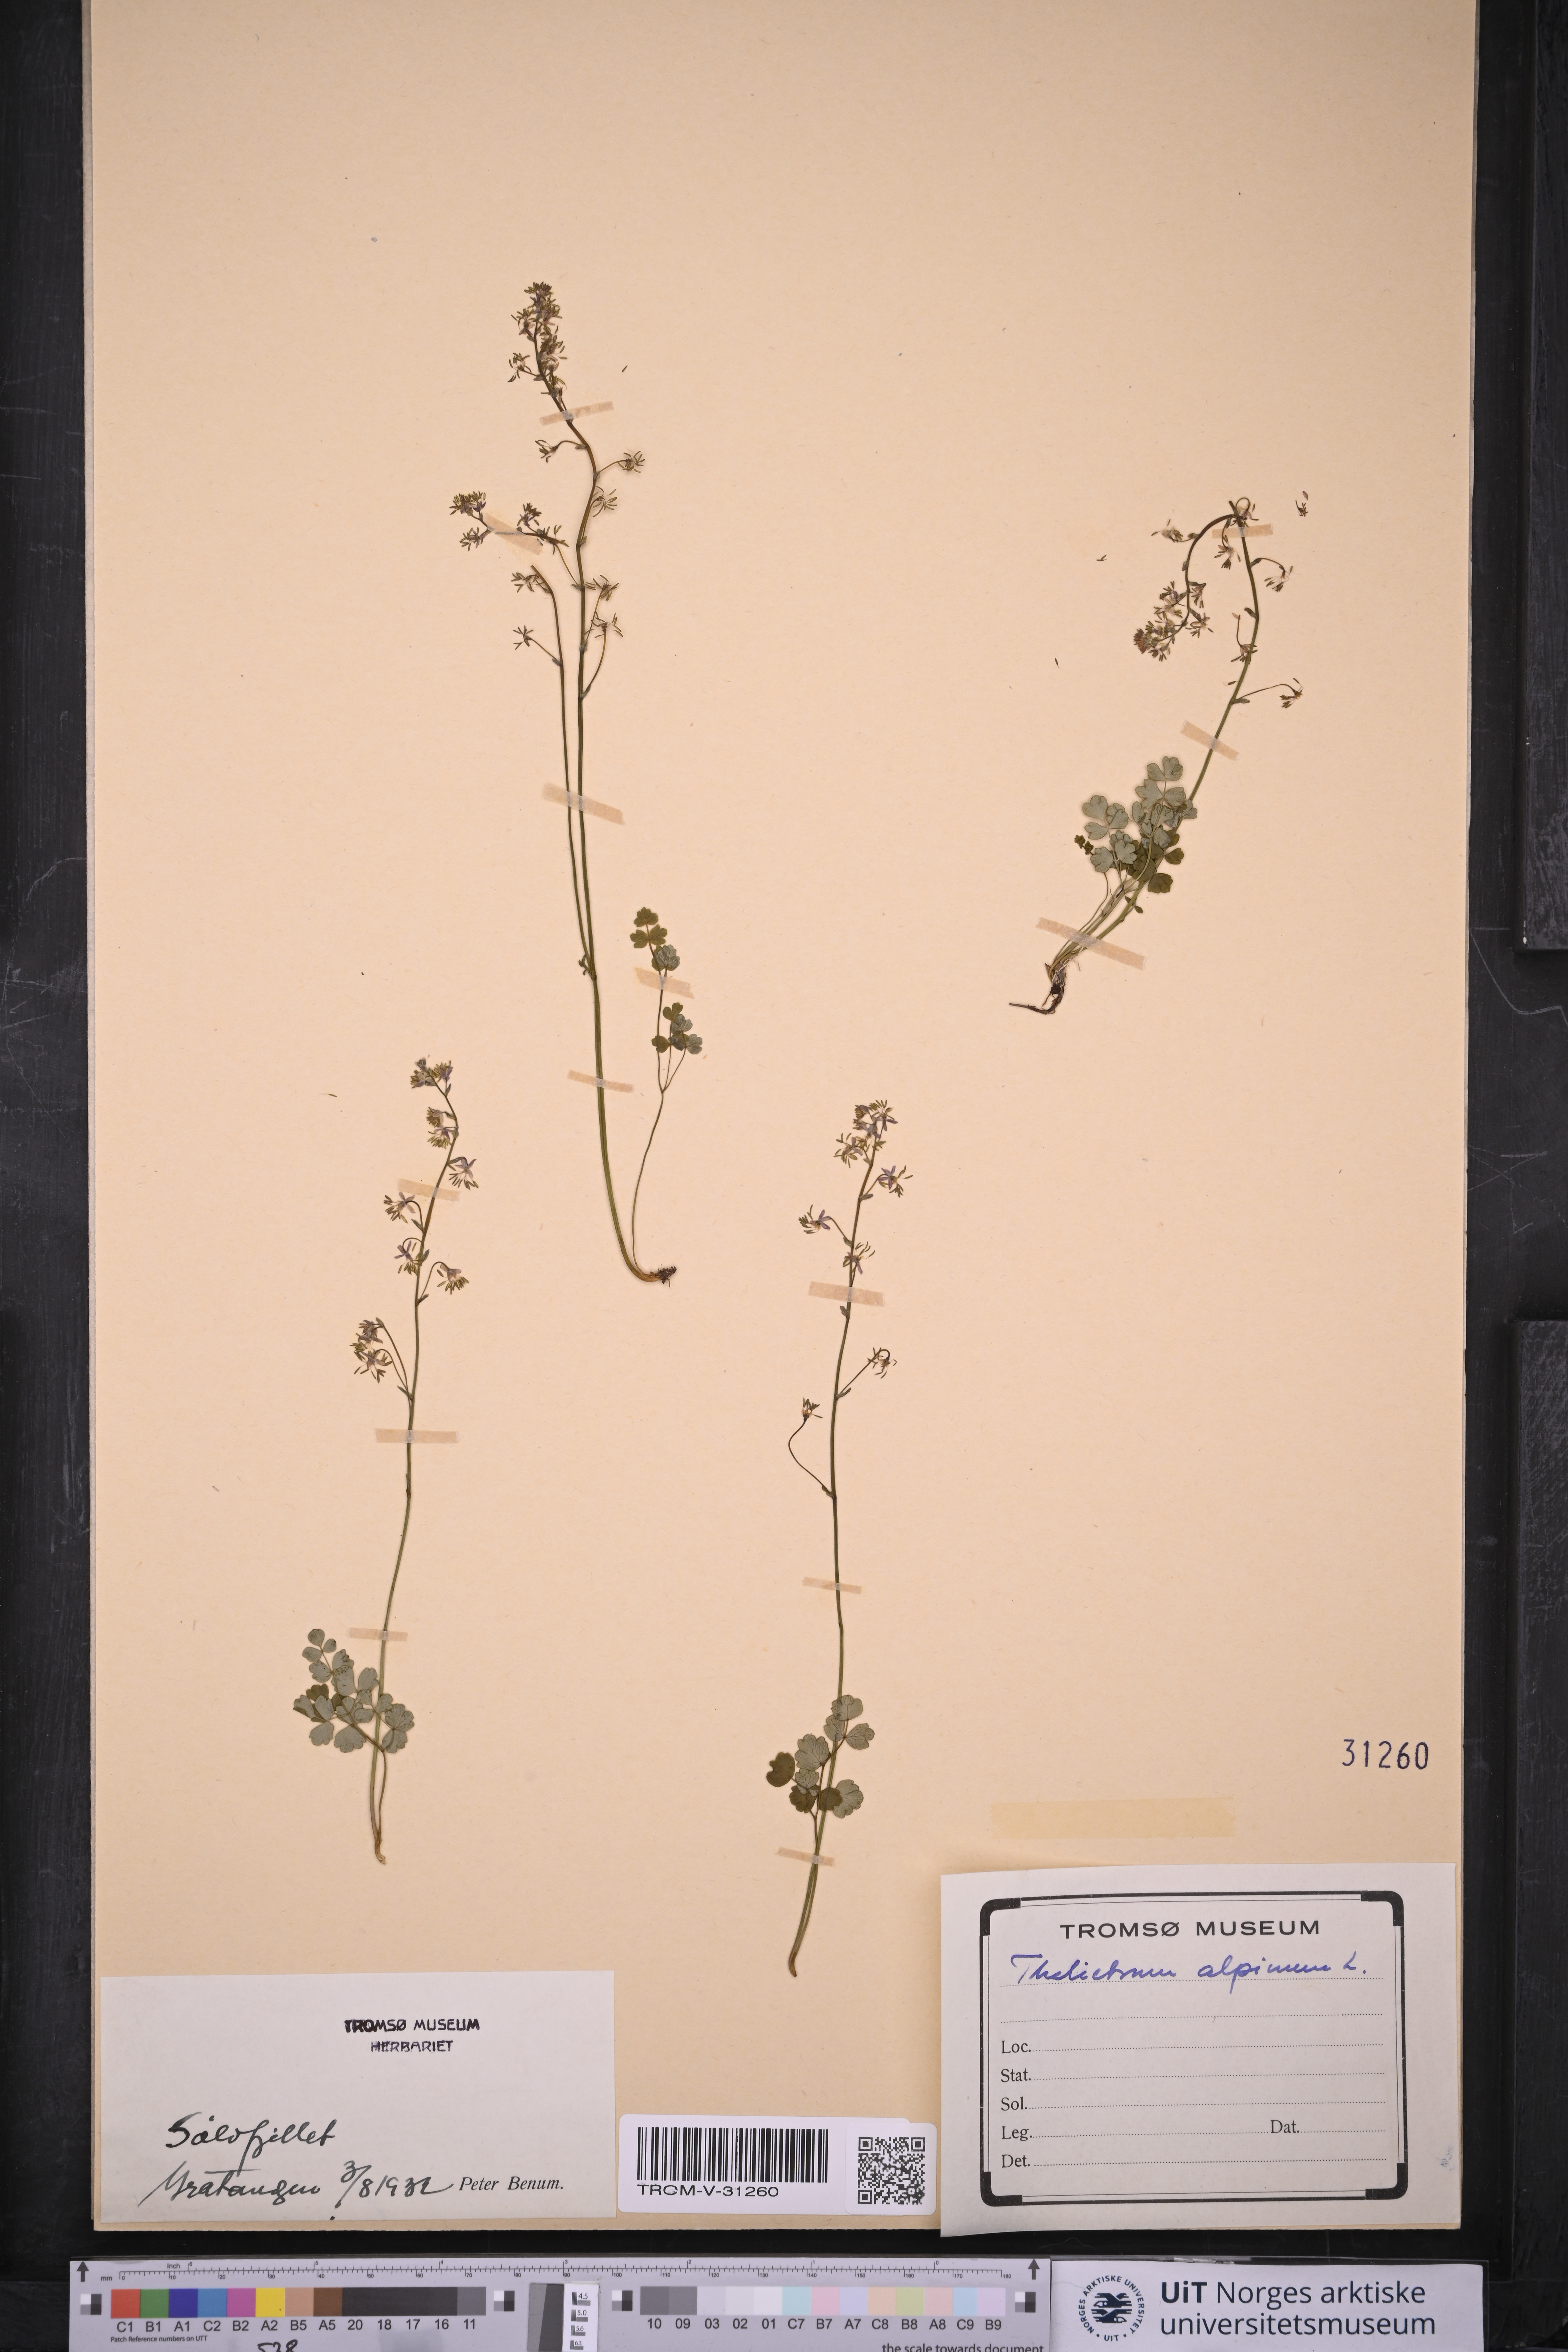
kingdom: Plantae
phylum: Tracheophyta
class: Magnoliopsida
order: Ranunculales
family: Ranunculaceae
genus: Thalictrum
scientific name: Thalictrum alpinum
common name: Alpine meadow-rue
